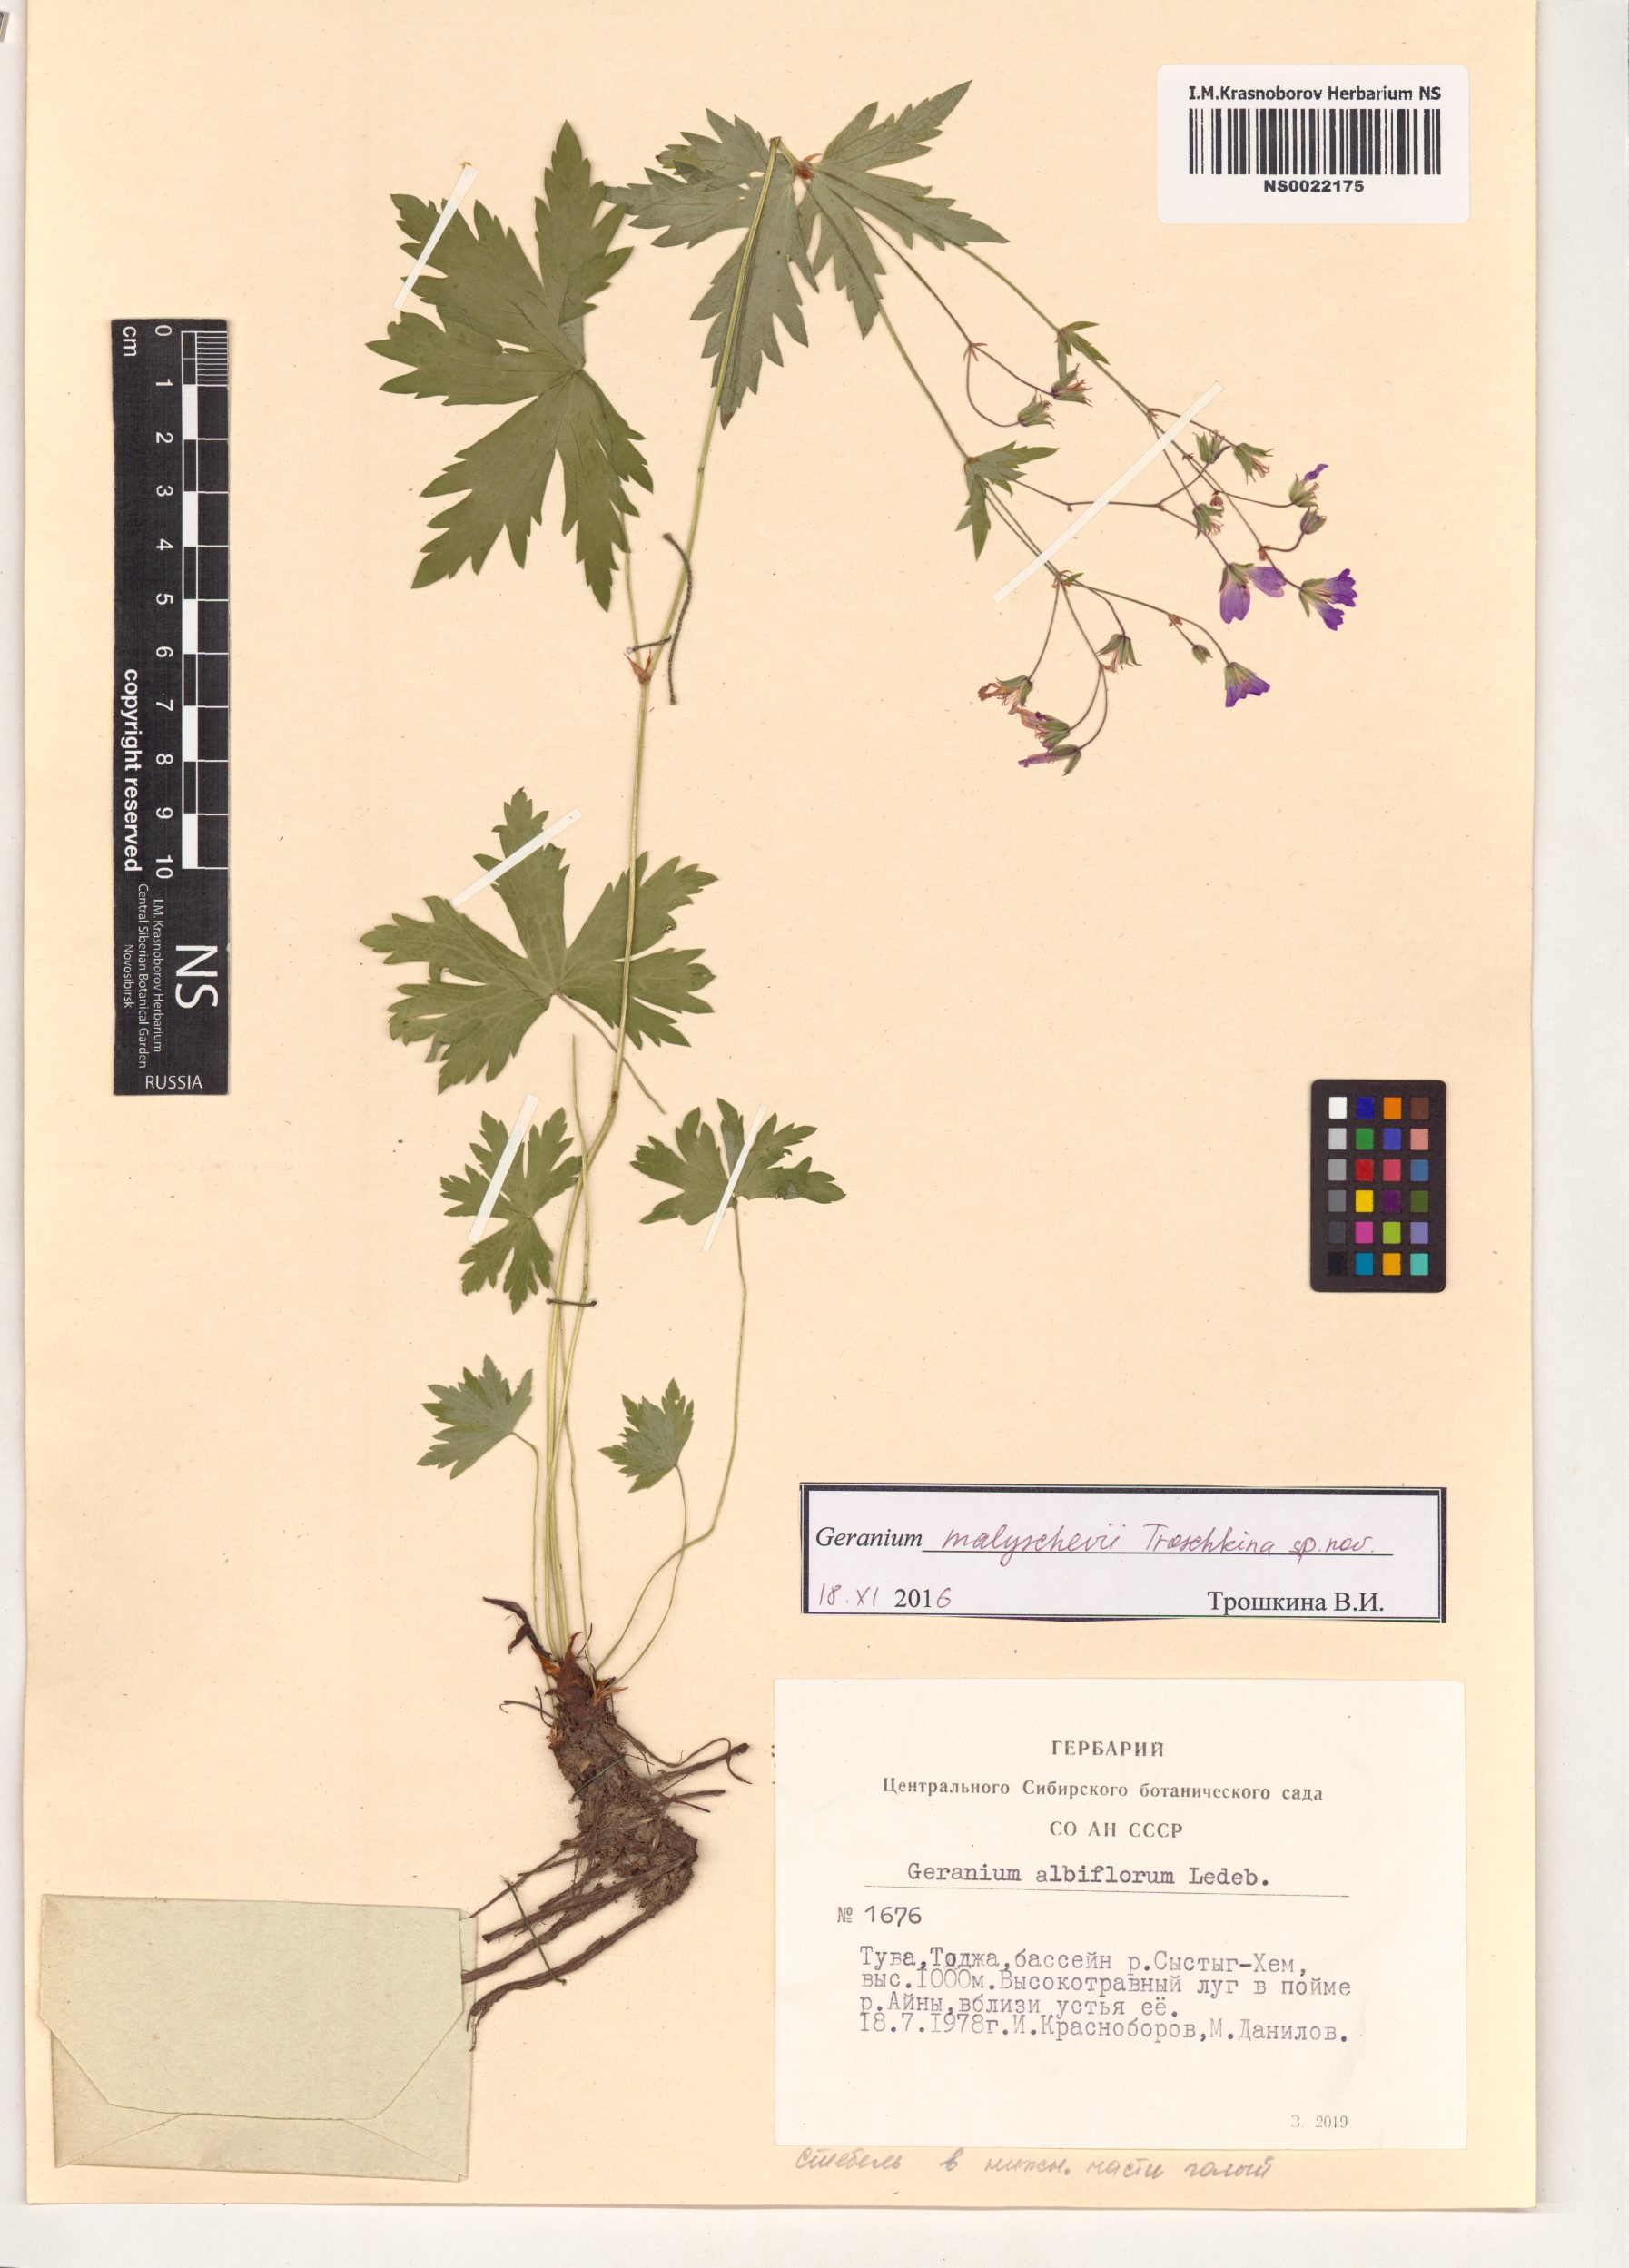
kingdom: Plantae
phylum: Tracheophyta
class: Magnoliopsida
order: Geraniales
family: Geraniaceae
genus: Geranium
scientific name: Geranium malyschevii
